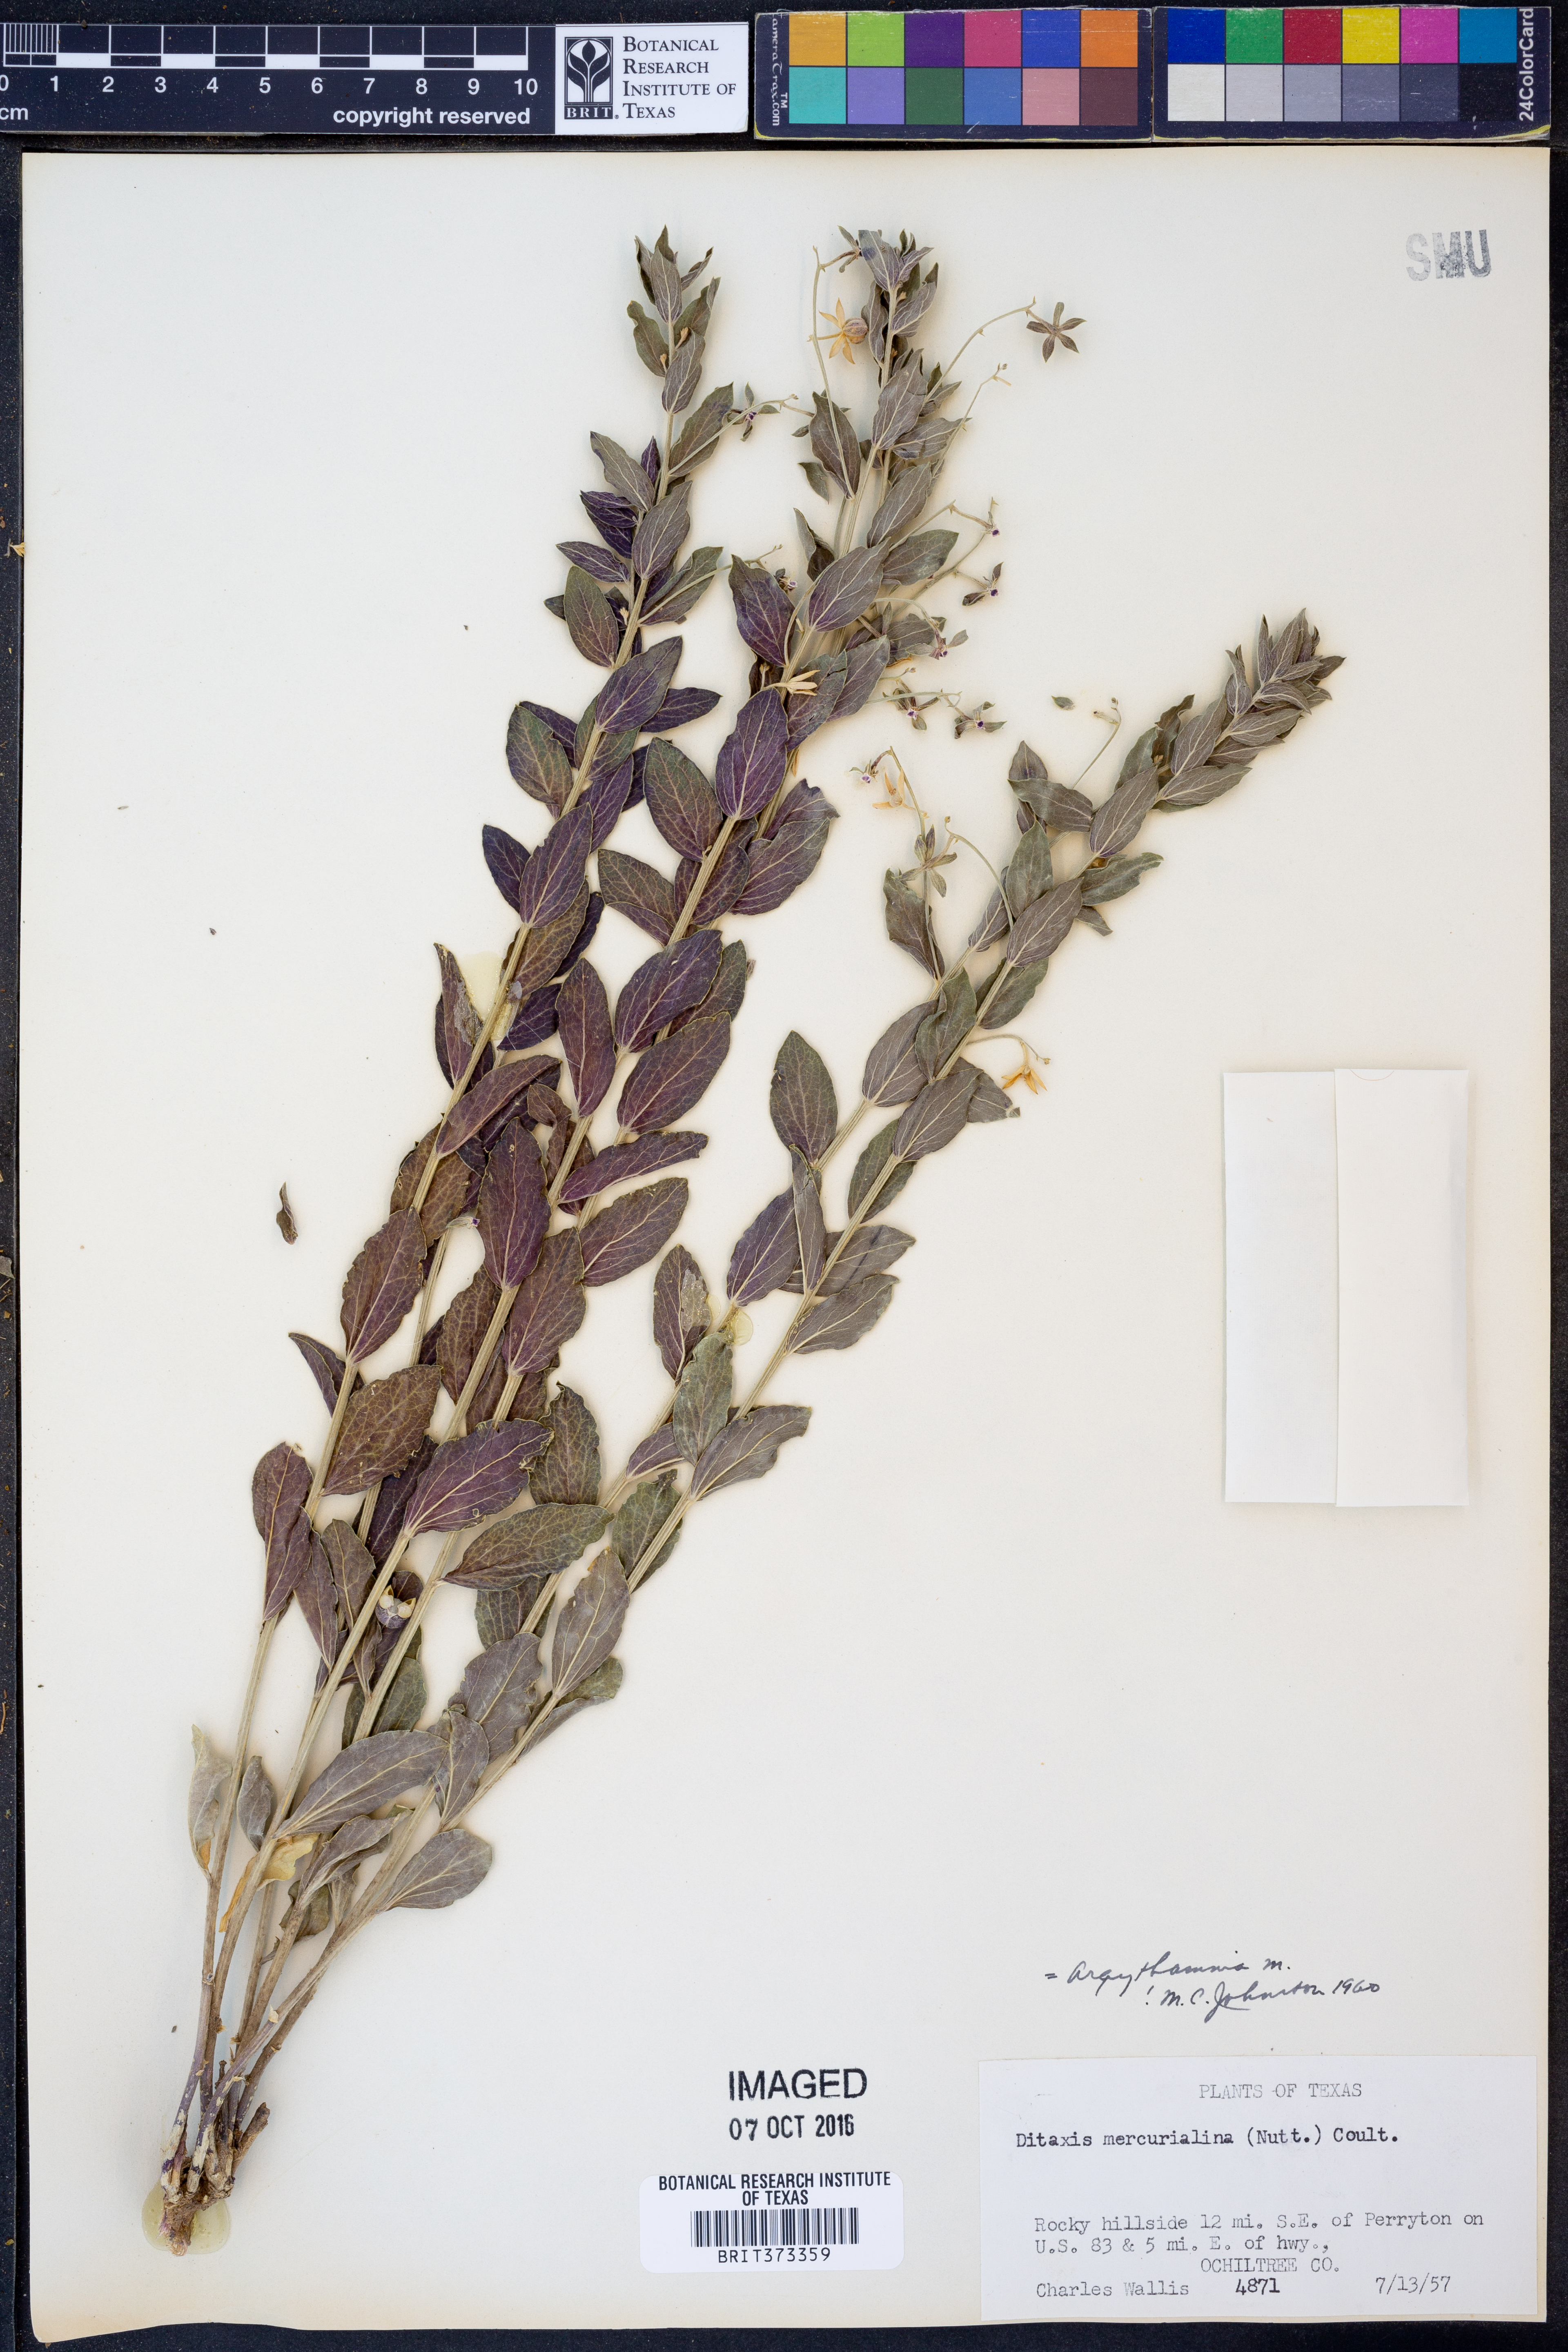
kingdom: Plantae
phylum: Tracheophyta
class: Magnoliopsida
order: Malpighiales
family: Euphorbiaceae
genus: Ditaxis
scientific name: Ditaxis mercurialina
